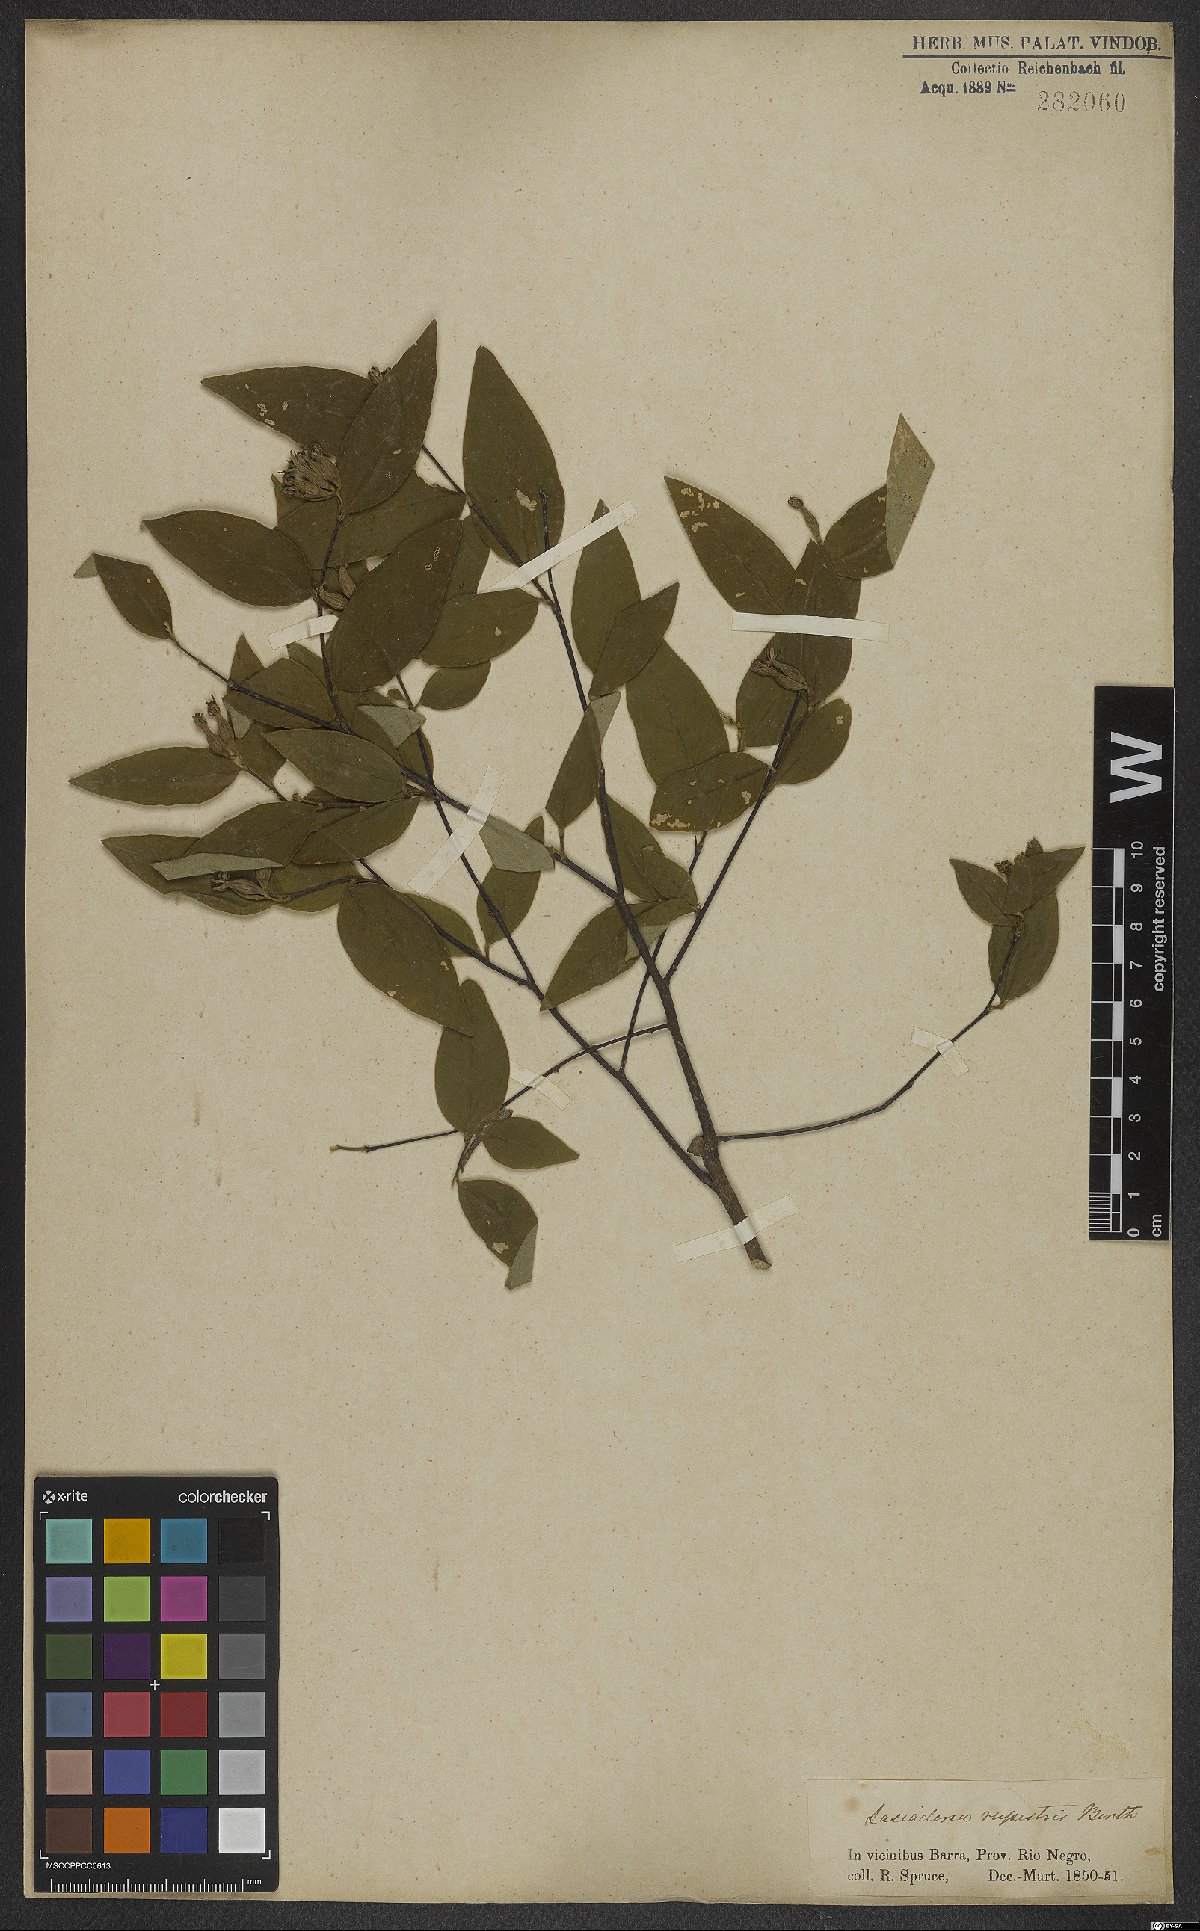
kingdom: Plantae
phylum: Tracheophyta
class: Magnoliopsida
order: Malvales
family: Thymelaeaceae
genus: Lasiadenia
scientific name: Lasiadenia rupestris
